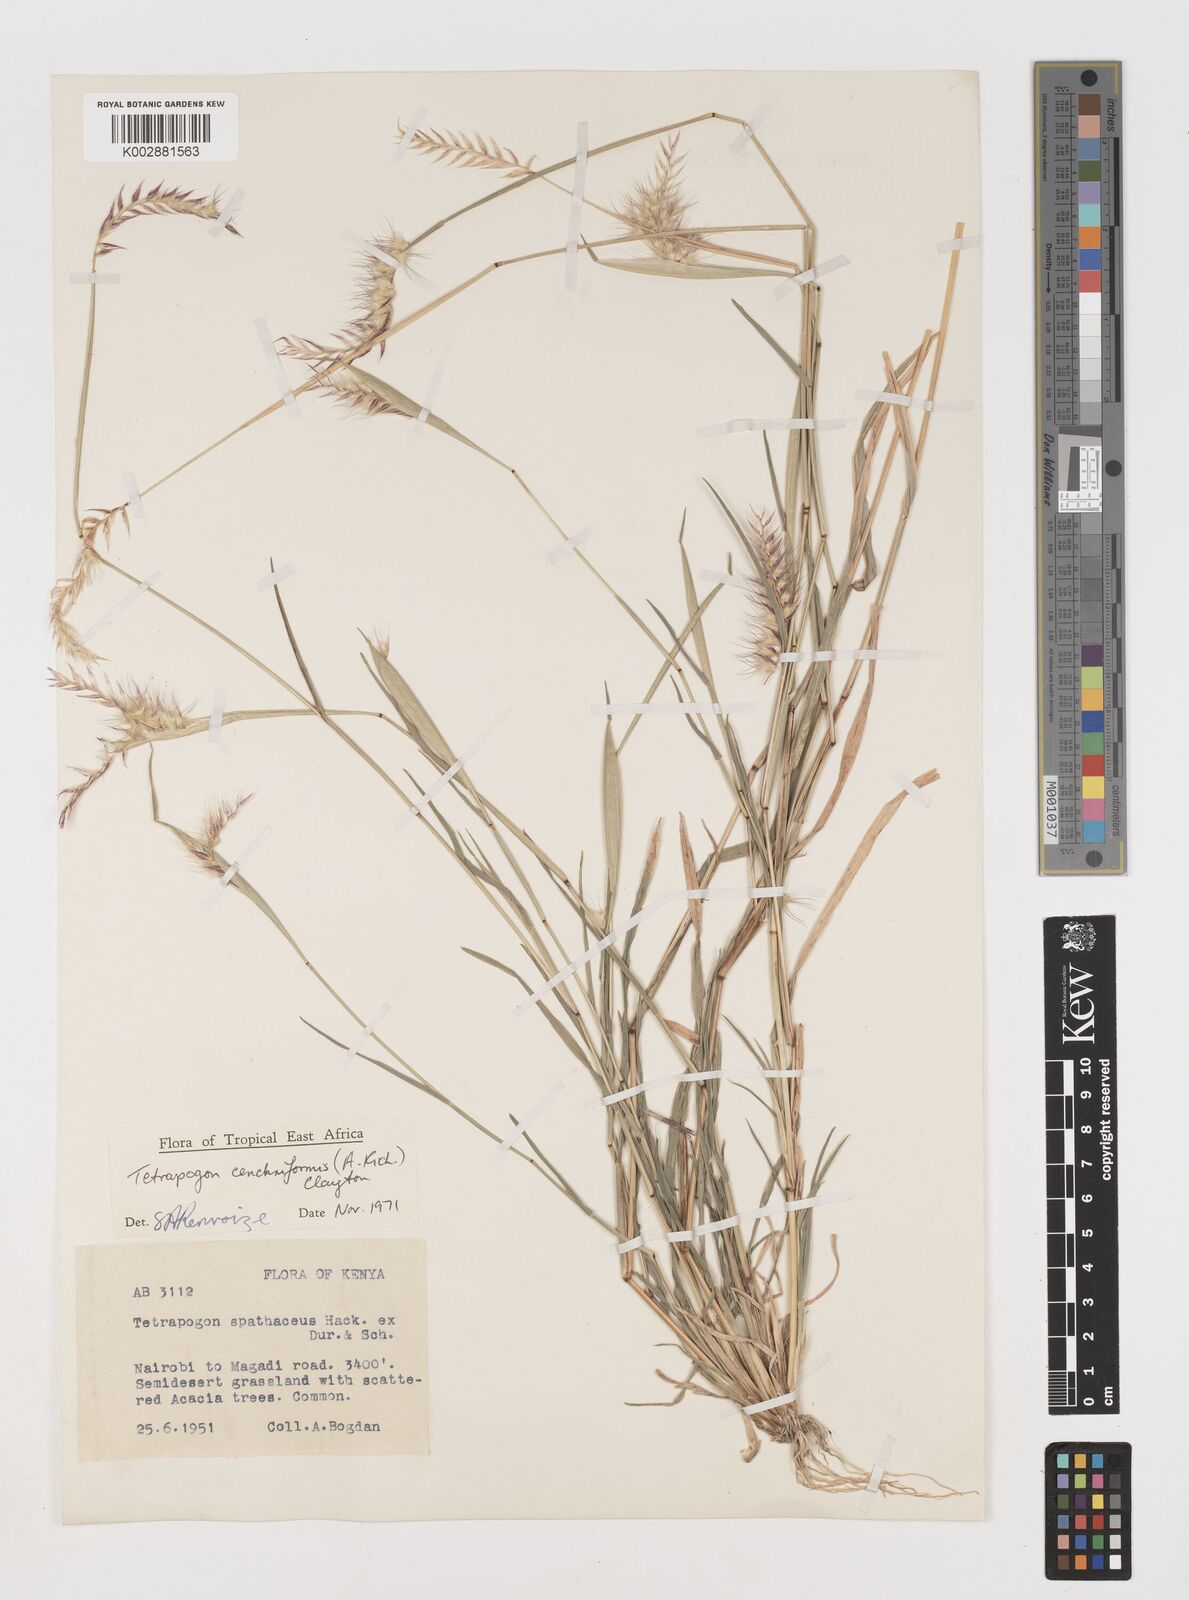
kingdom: Plantae
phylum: Tracheophyta
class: Liliopsida
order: Poales
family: Poaceae
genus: Tetrapogon
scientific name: Tetrapogon cenchriformis
